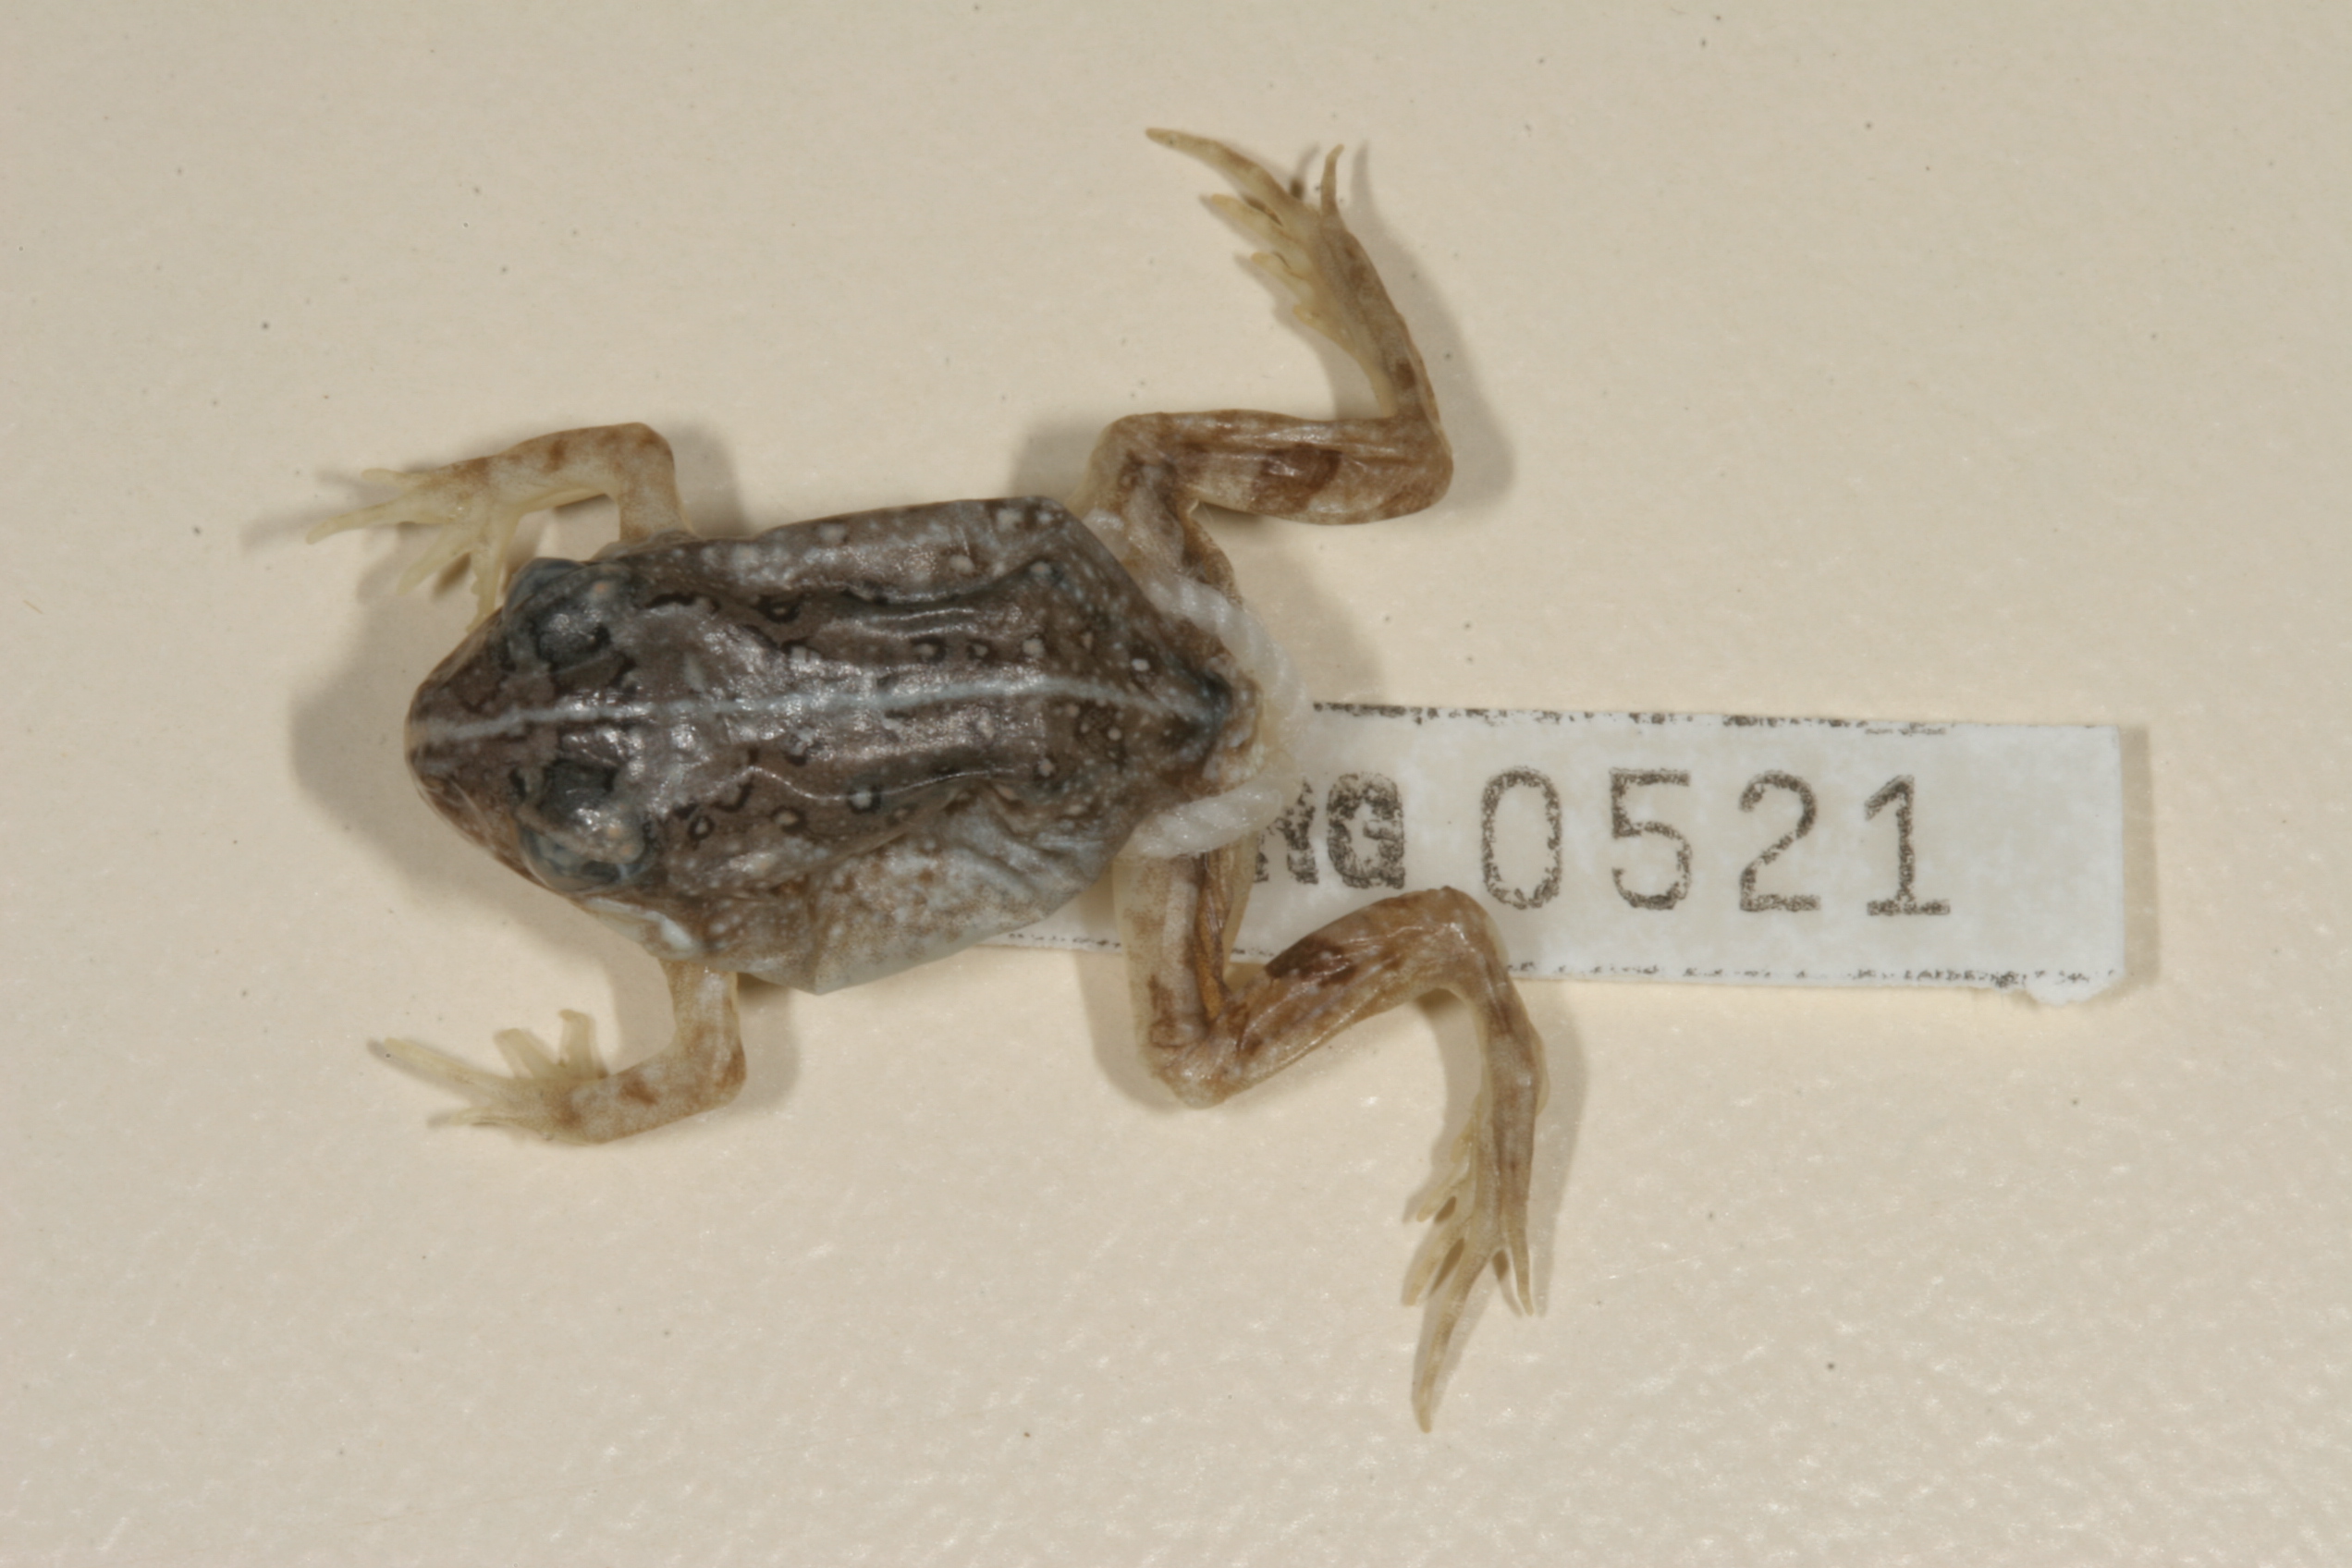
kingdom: Animalia
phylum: Chordata
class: Amphibia
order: Anura
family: Pyxicephalidae
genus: Tomopterna
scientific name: Tomopterna krugerensis
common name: Knocking sand frog
